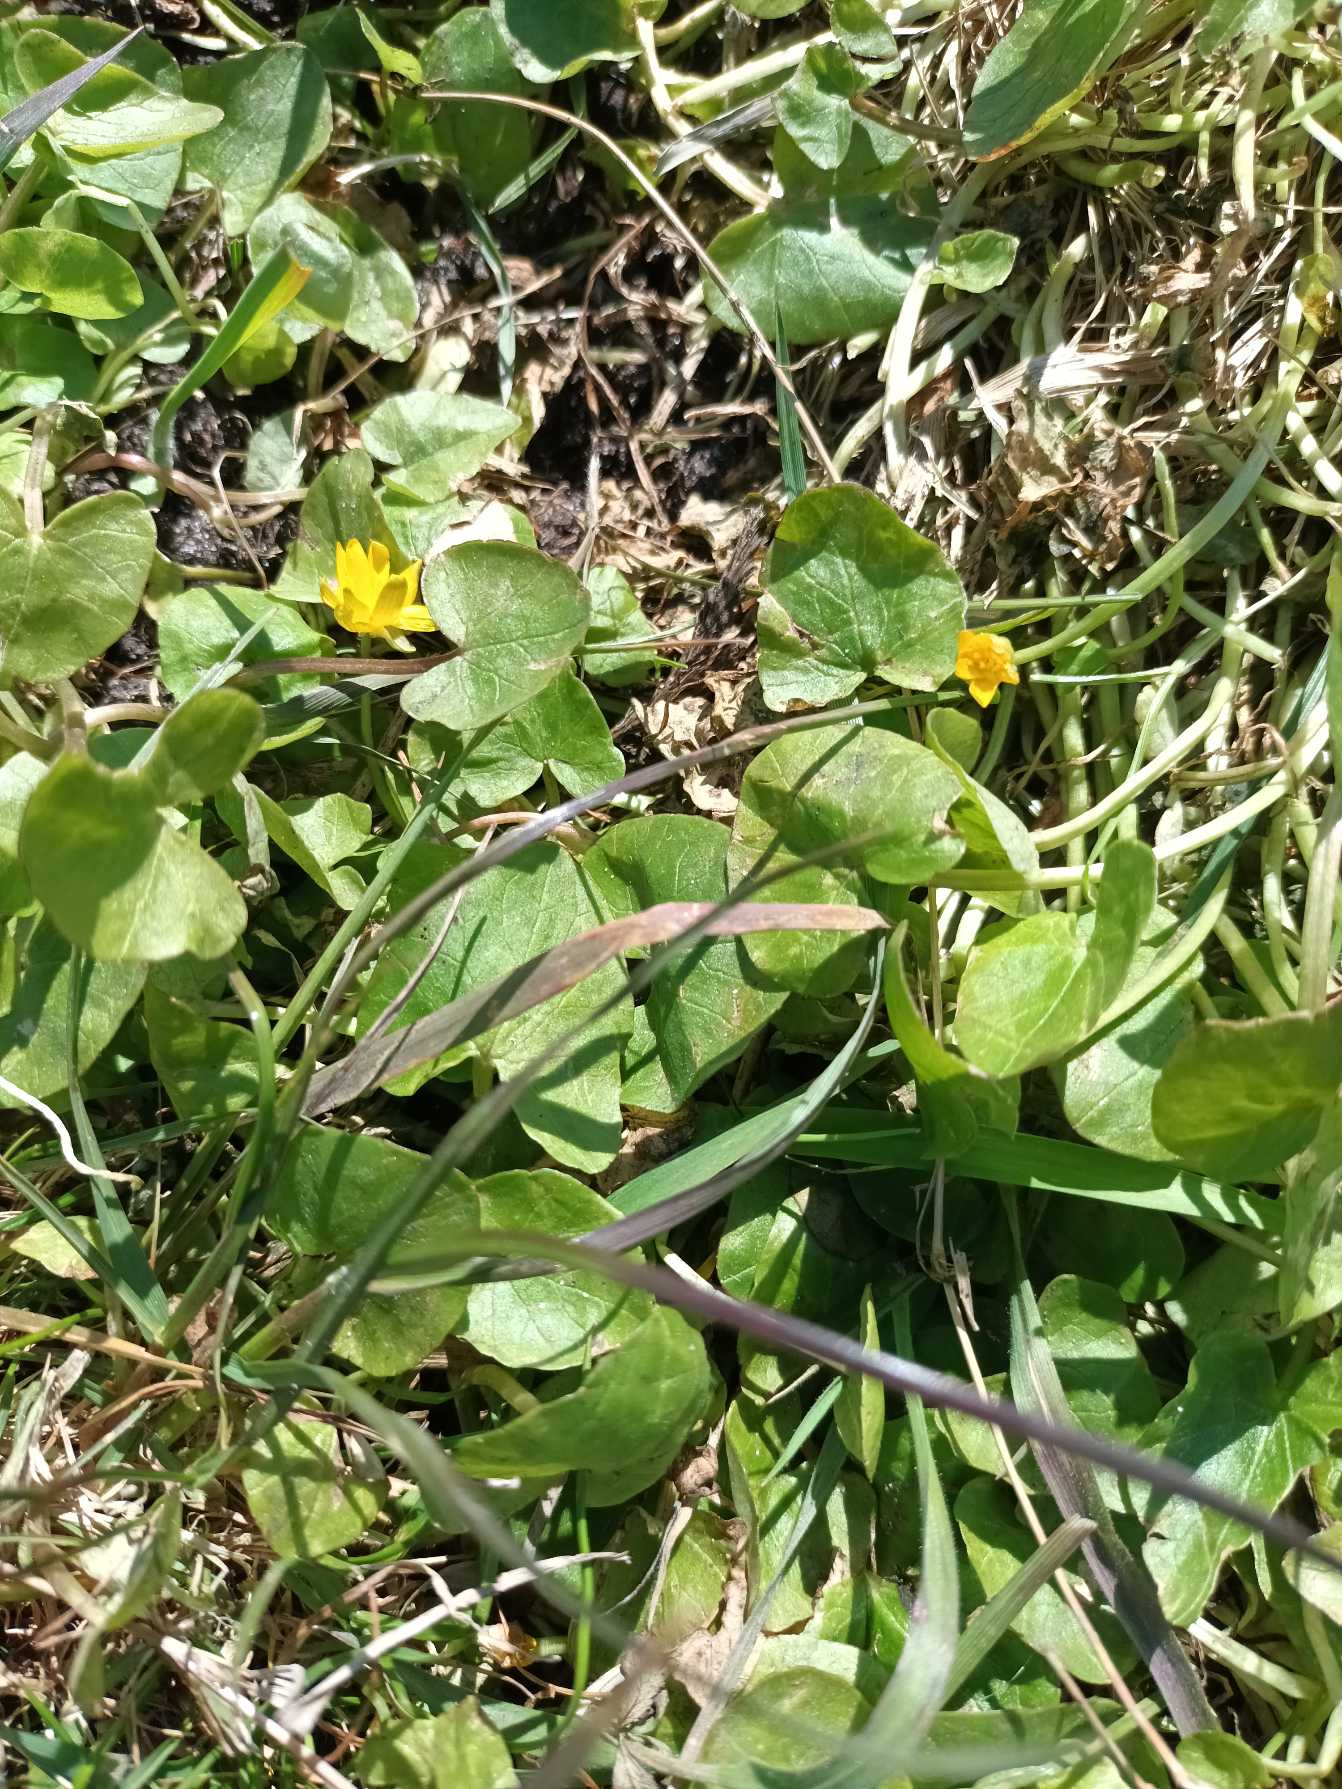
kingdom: Plantae
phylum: Tracheophyta
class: Magnoliopsida
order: Ranunculales
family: Ranunculaceae
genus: Ficaria
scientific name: Ficaria verna
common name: Vorterod
